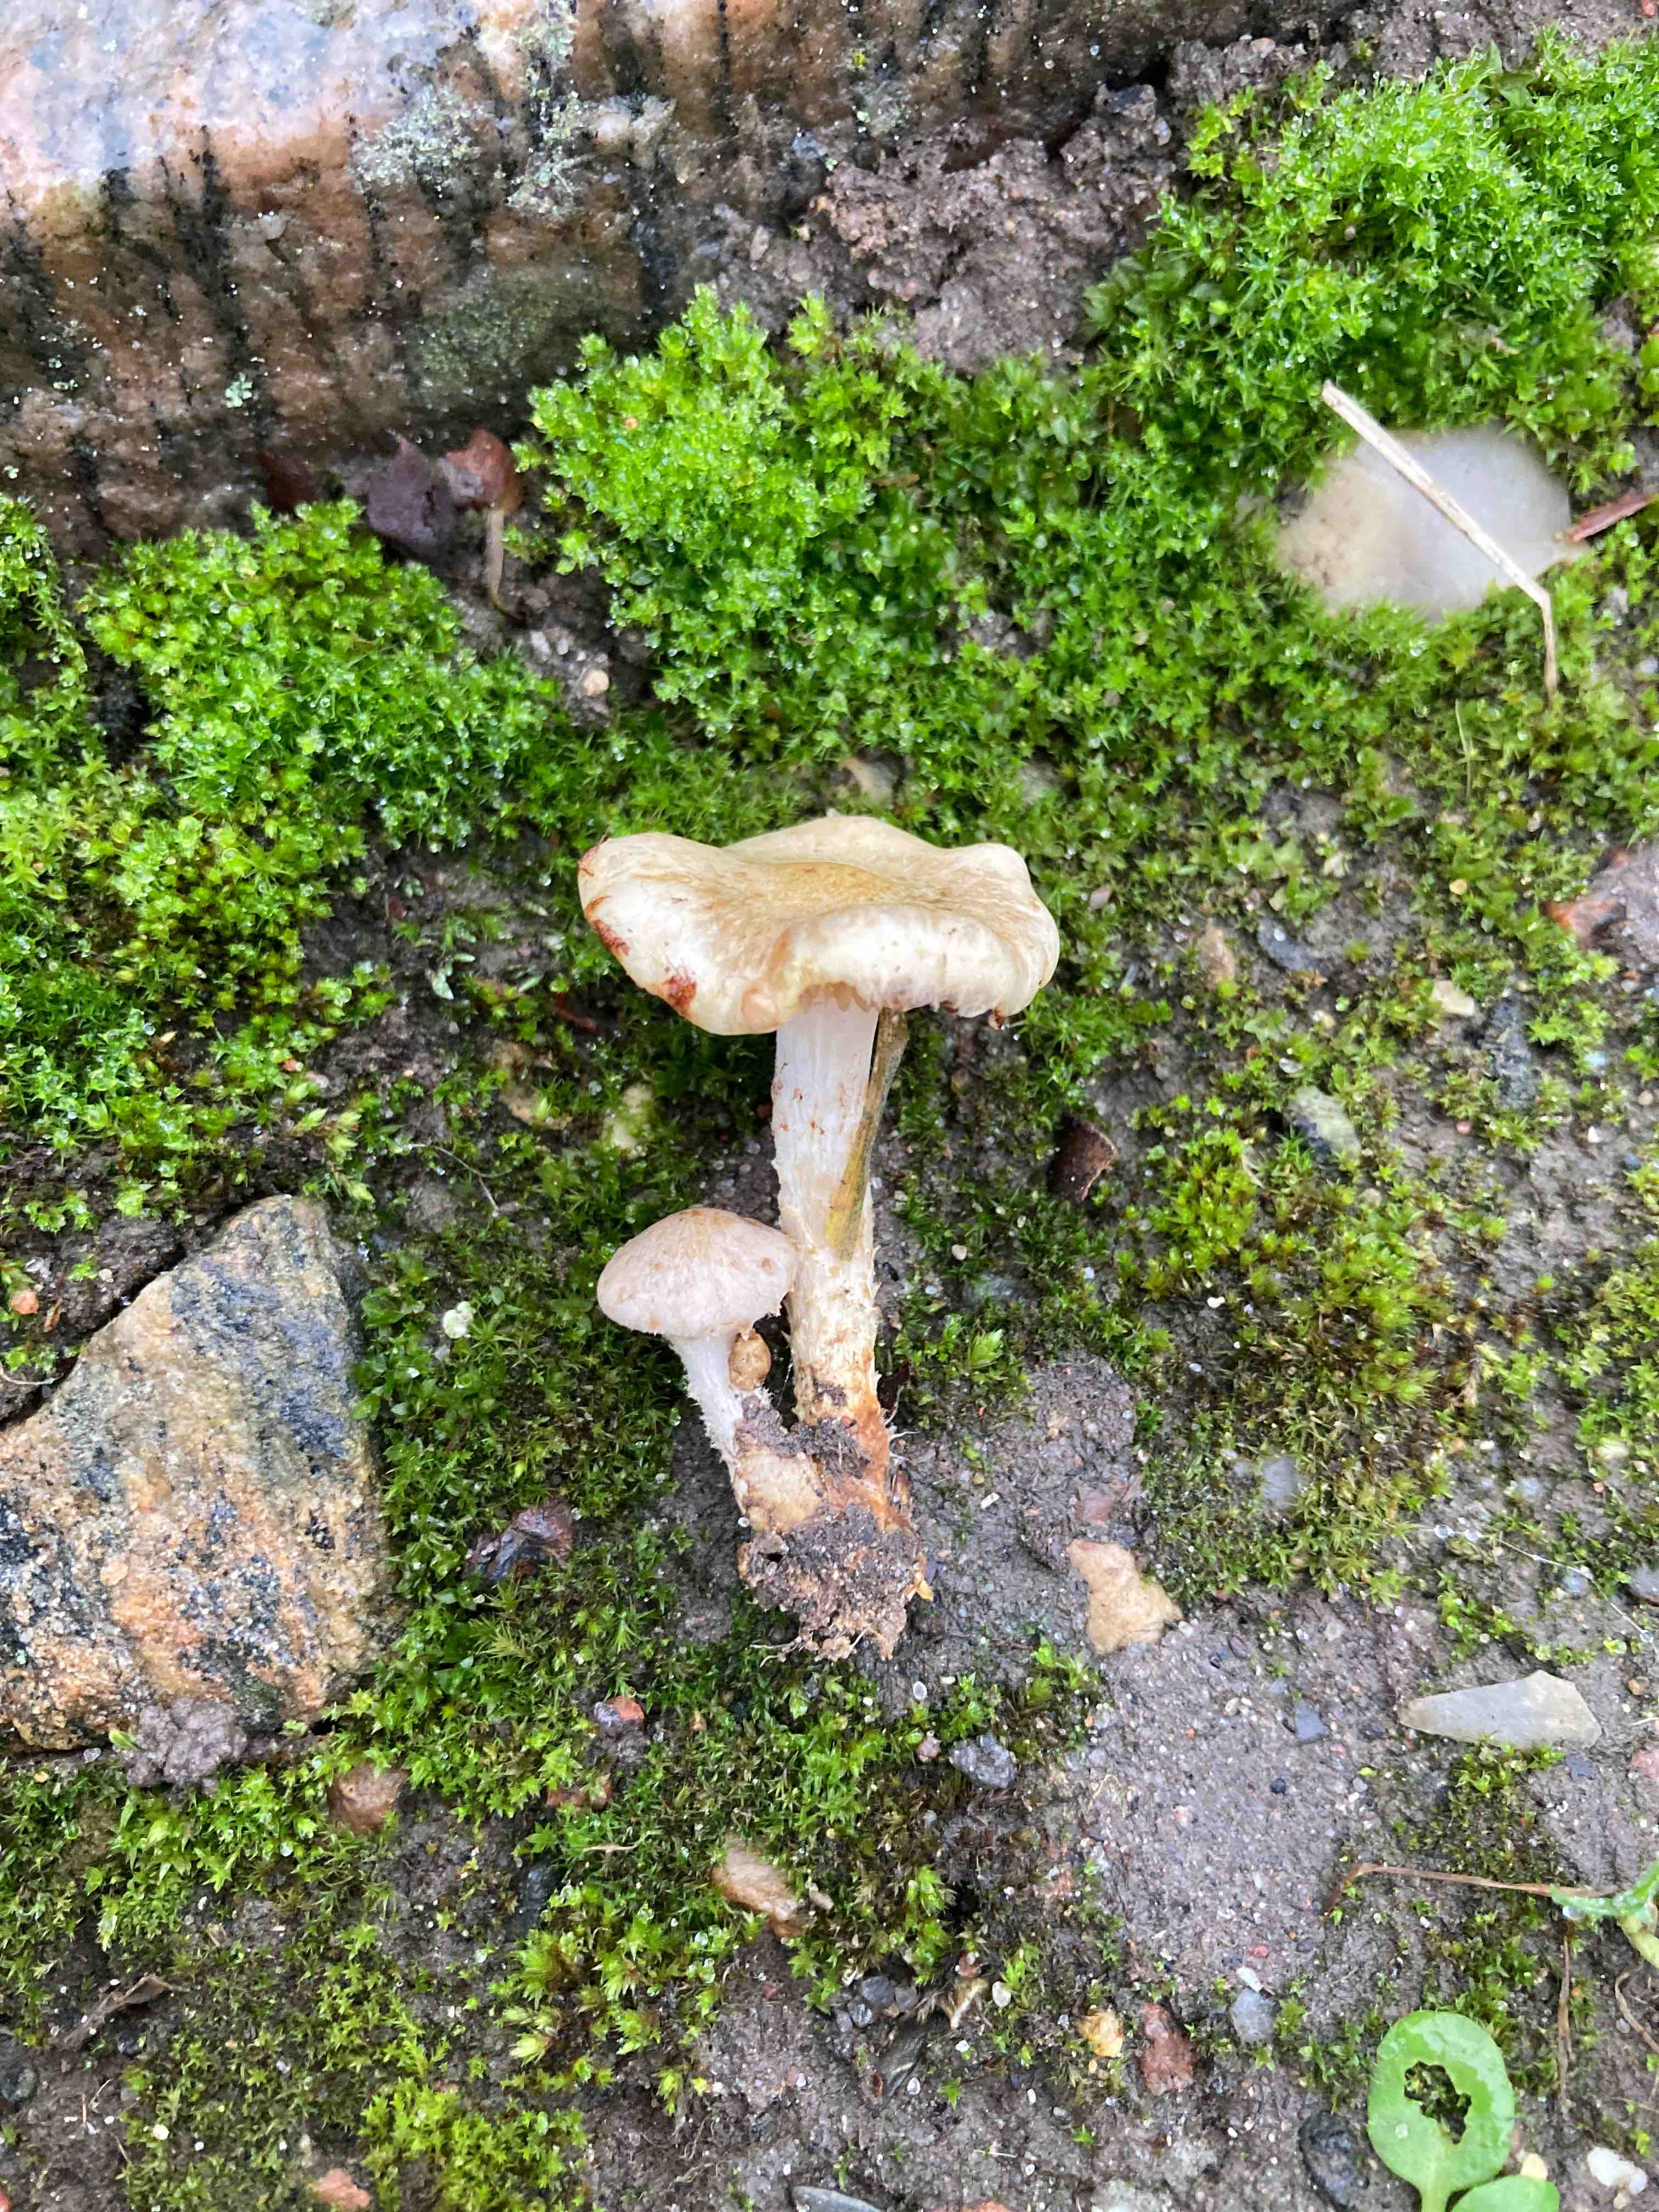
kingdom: Fungi
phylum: Basidiomycota
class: Agaricomycetes
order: Agaricales
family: Strophariaceae
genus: Pholiota
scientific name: Pholiota gummosa
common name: grøngul skælhat
